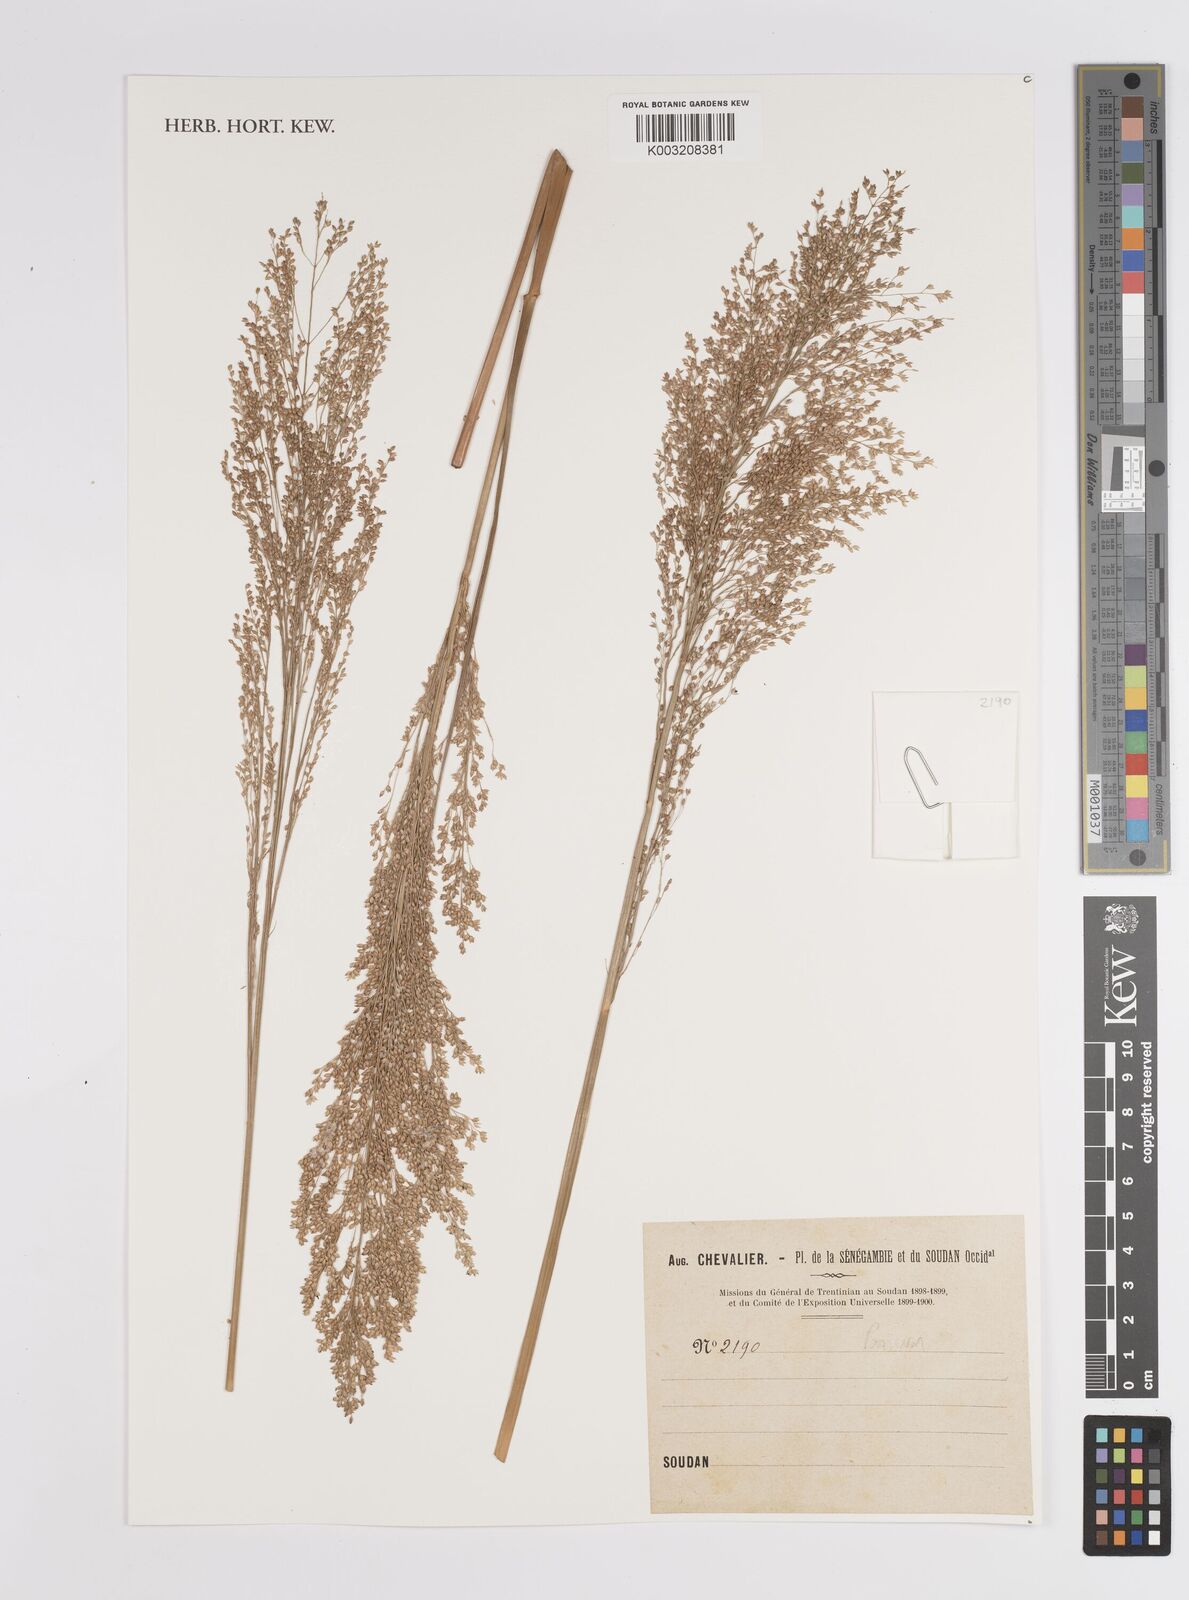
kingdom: Plantae
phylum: Tracheophyta
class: Liliopsida
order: Poales
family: Poaceae
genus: Panicum
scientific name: Panicum
